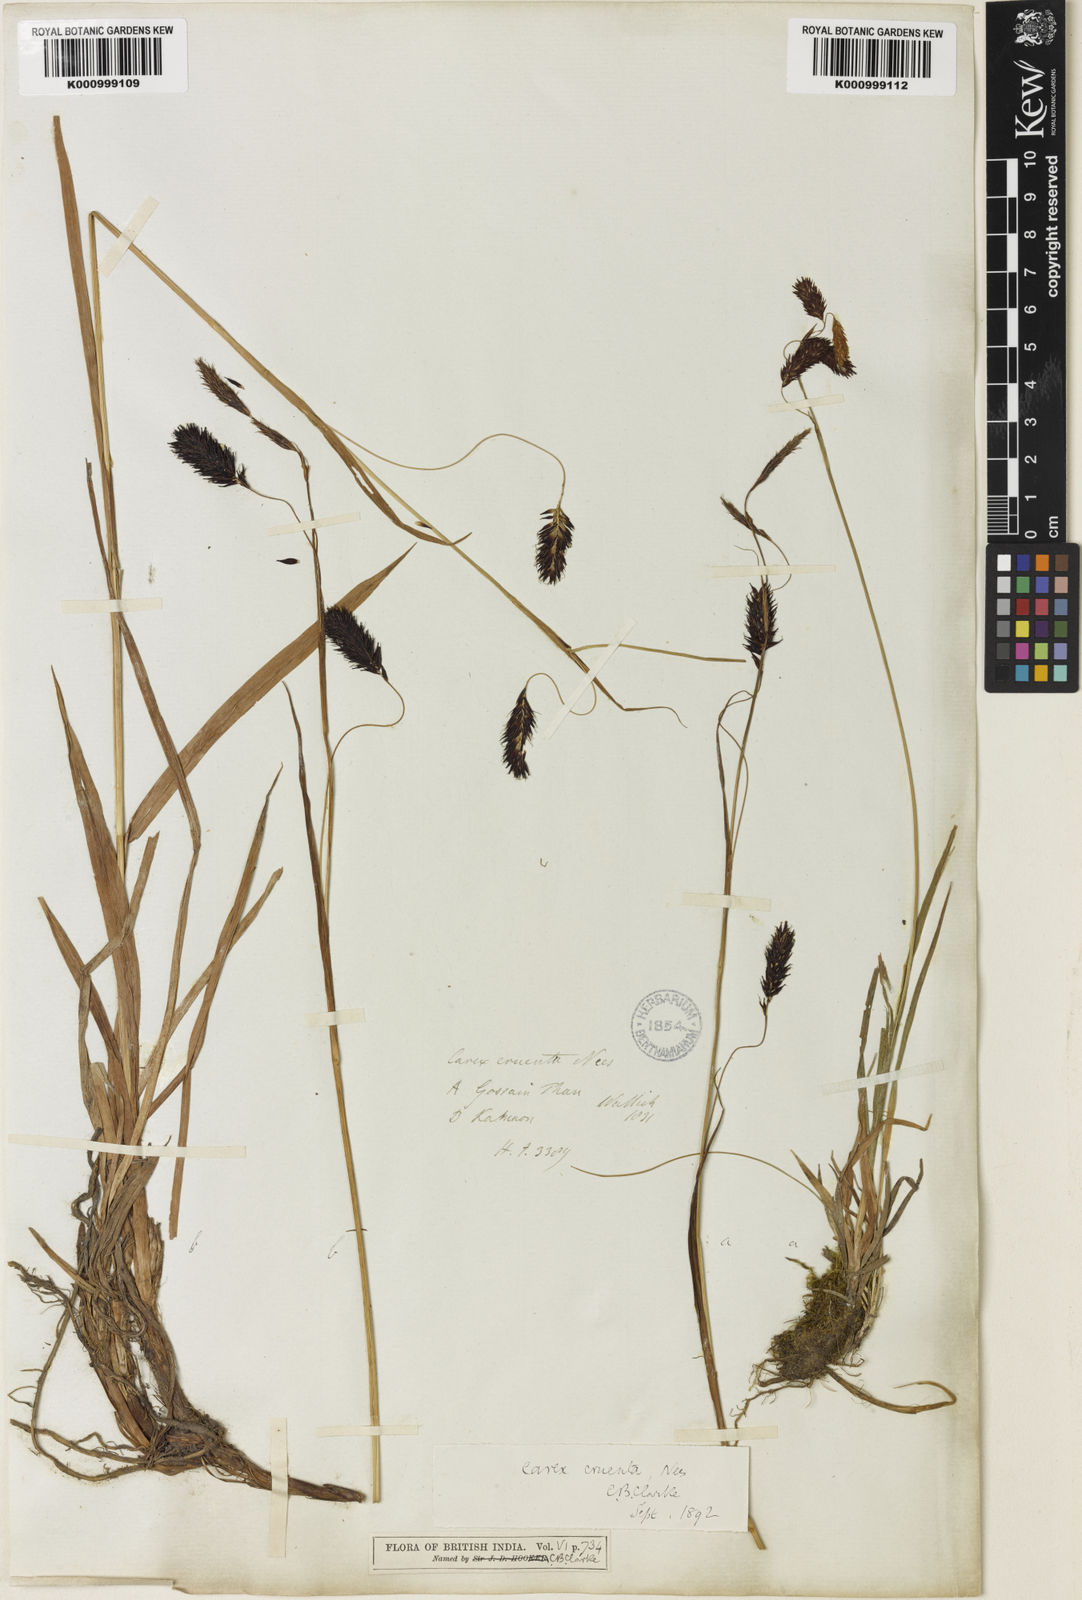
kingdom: Plantae
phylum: Tracheophyta
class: Liliopsida
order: Poales
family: Cyperaceae
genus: Carex
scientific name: Carex cruenta
